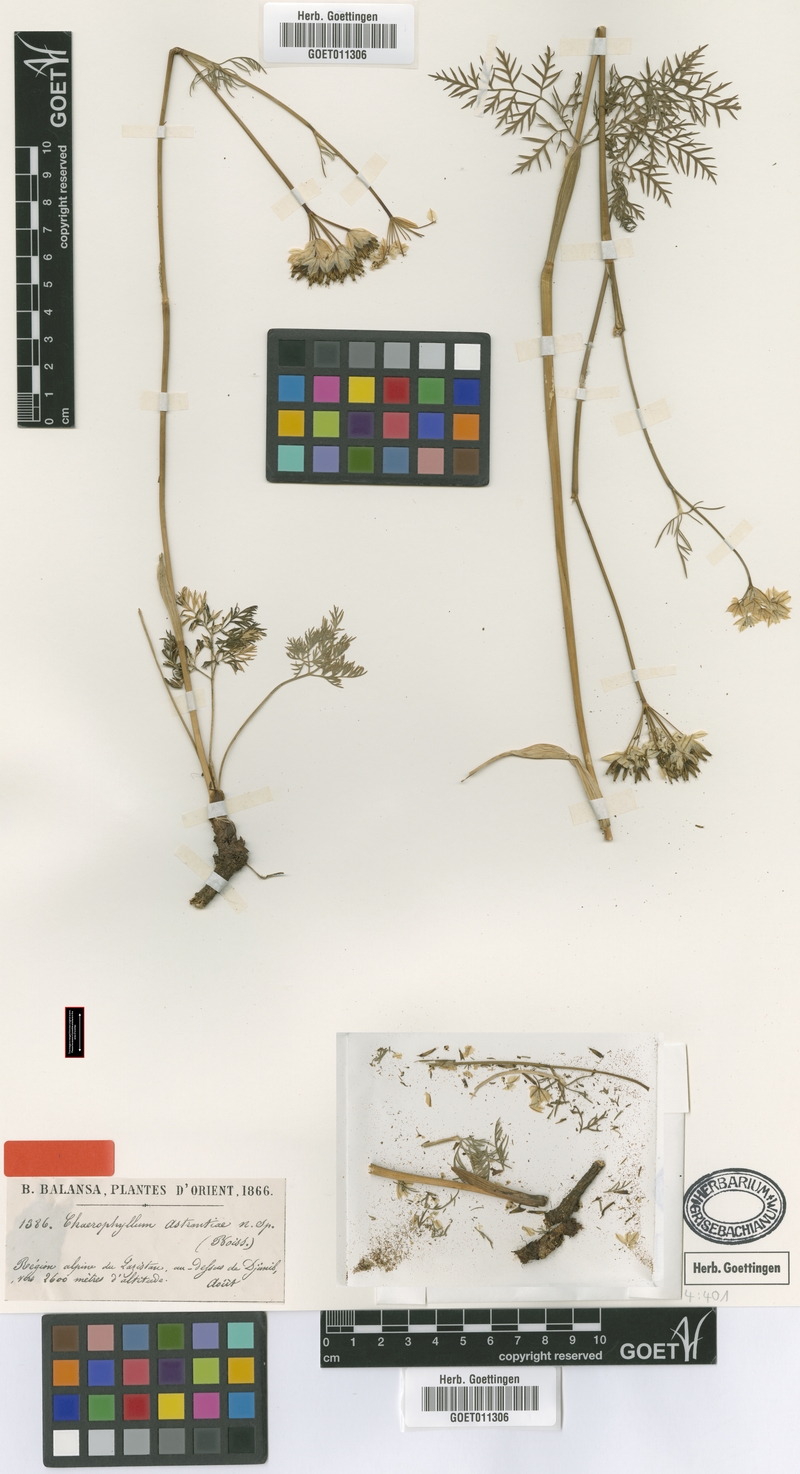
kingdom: Plantae
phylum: Tracheophyta
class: Magnoliopsida
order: Apiales
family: Apiaceae
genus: Chaerophyllum
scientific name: Chaerophyllum astrantiae
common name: Astrantia-like cow parsley
